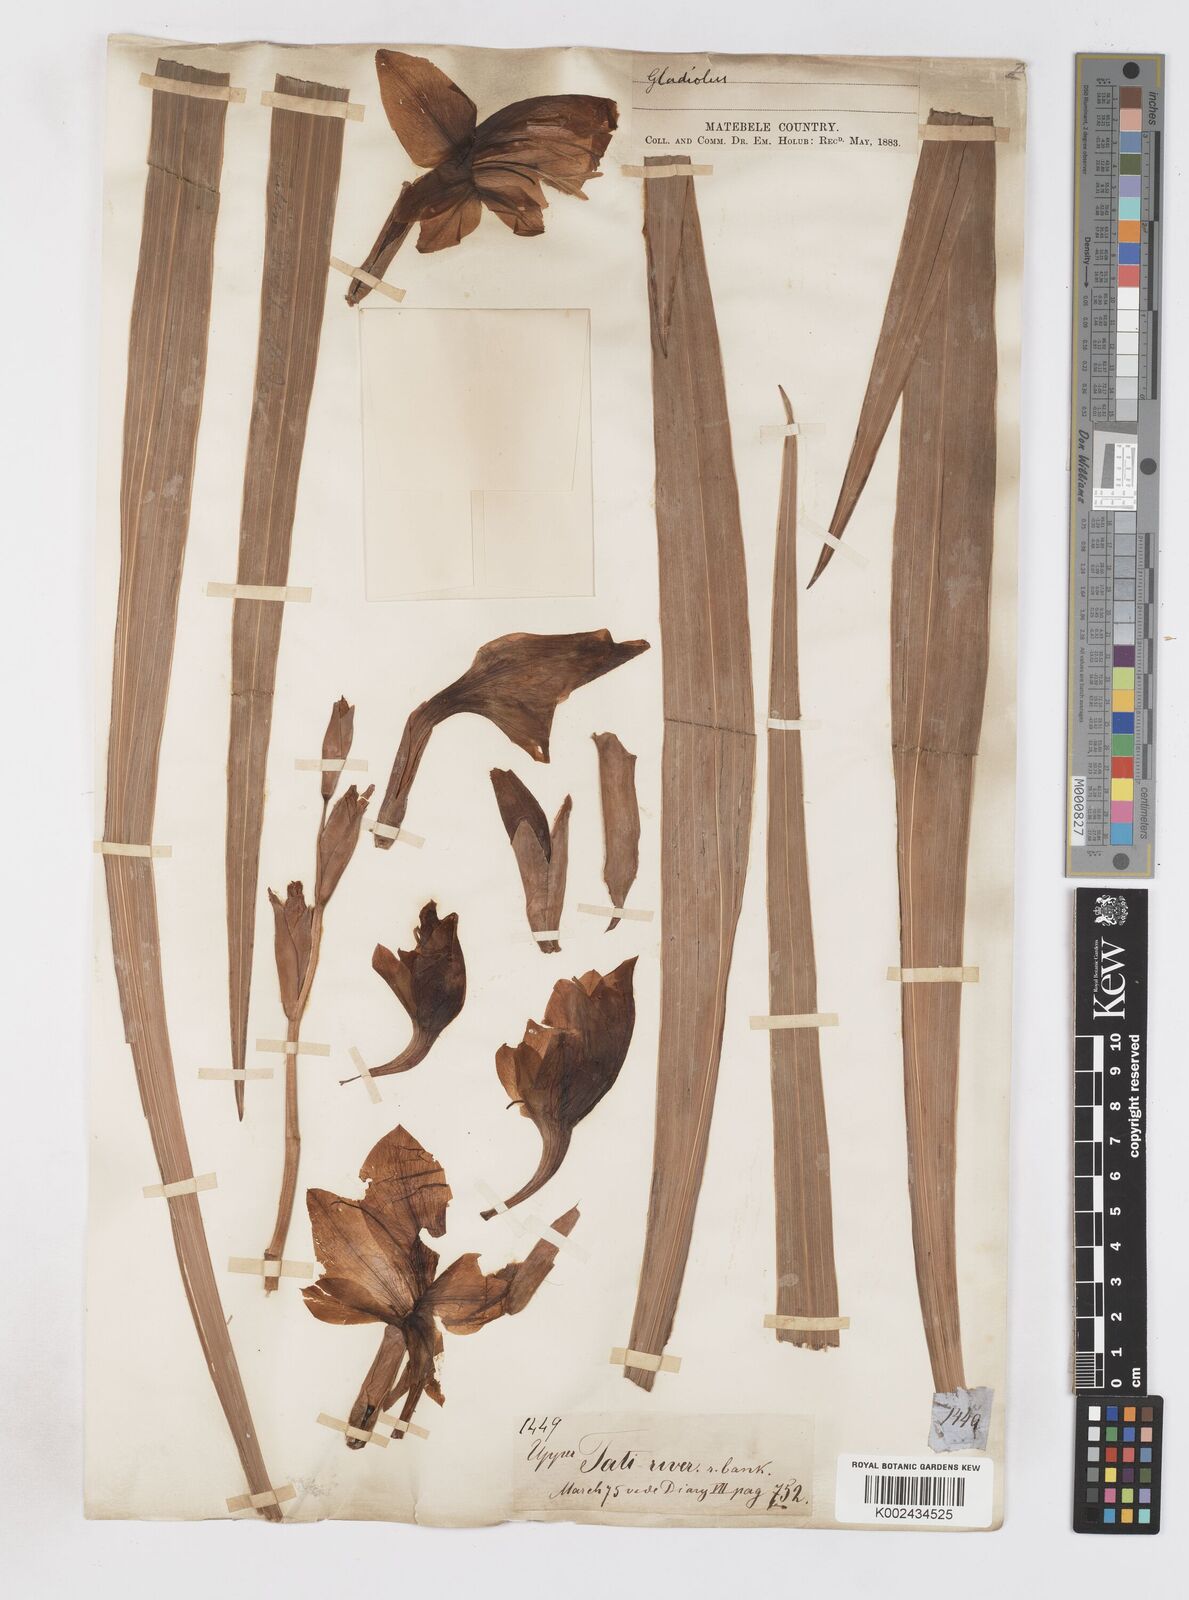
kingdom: Plantae
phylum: Tracheophyta
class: Liliopsida
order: Asparagales
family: Iridaceae
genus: Gladiolus
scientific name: Gladiolus dalenii
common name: Cornflag
